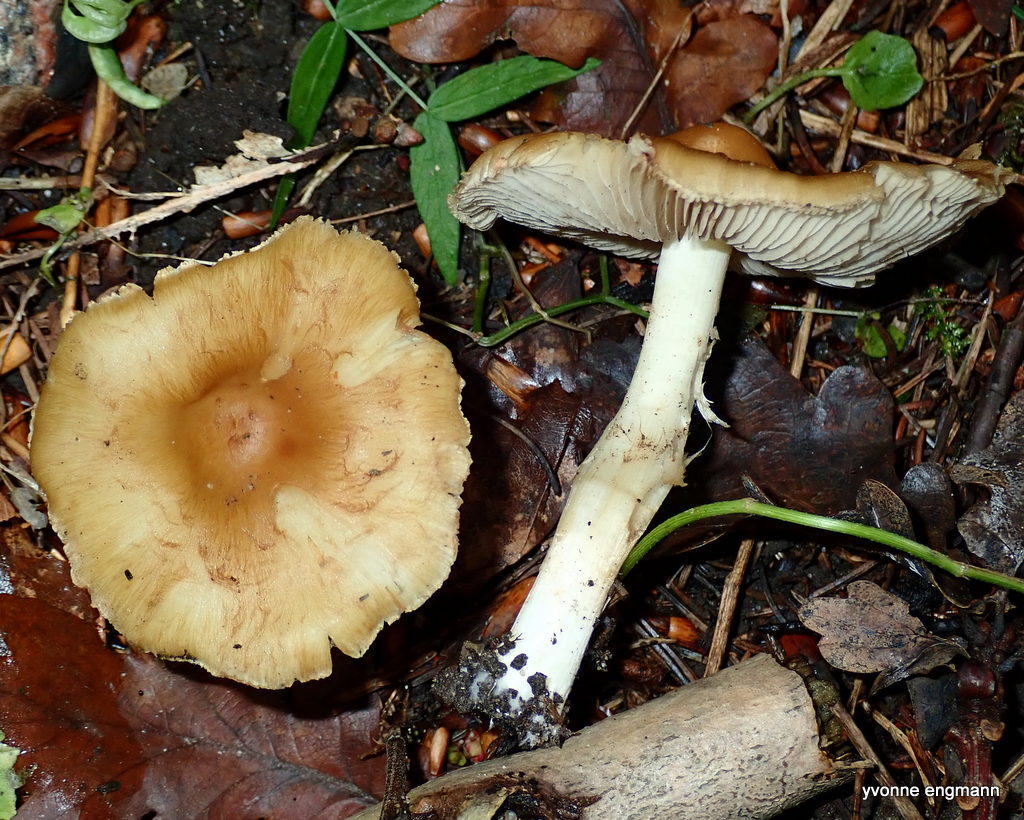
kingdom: Fungi
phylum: Basidiomycota
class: Agaricomycetes
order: Agaricales
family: Inocybaceae
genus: Inocybe
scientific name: Inocybe
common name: trævlhat
